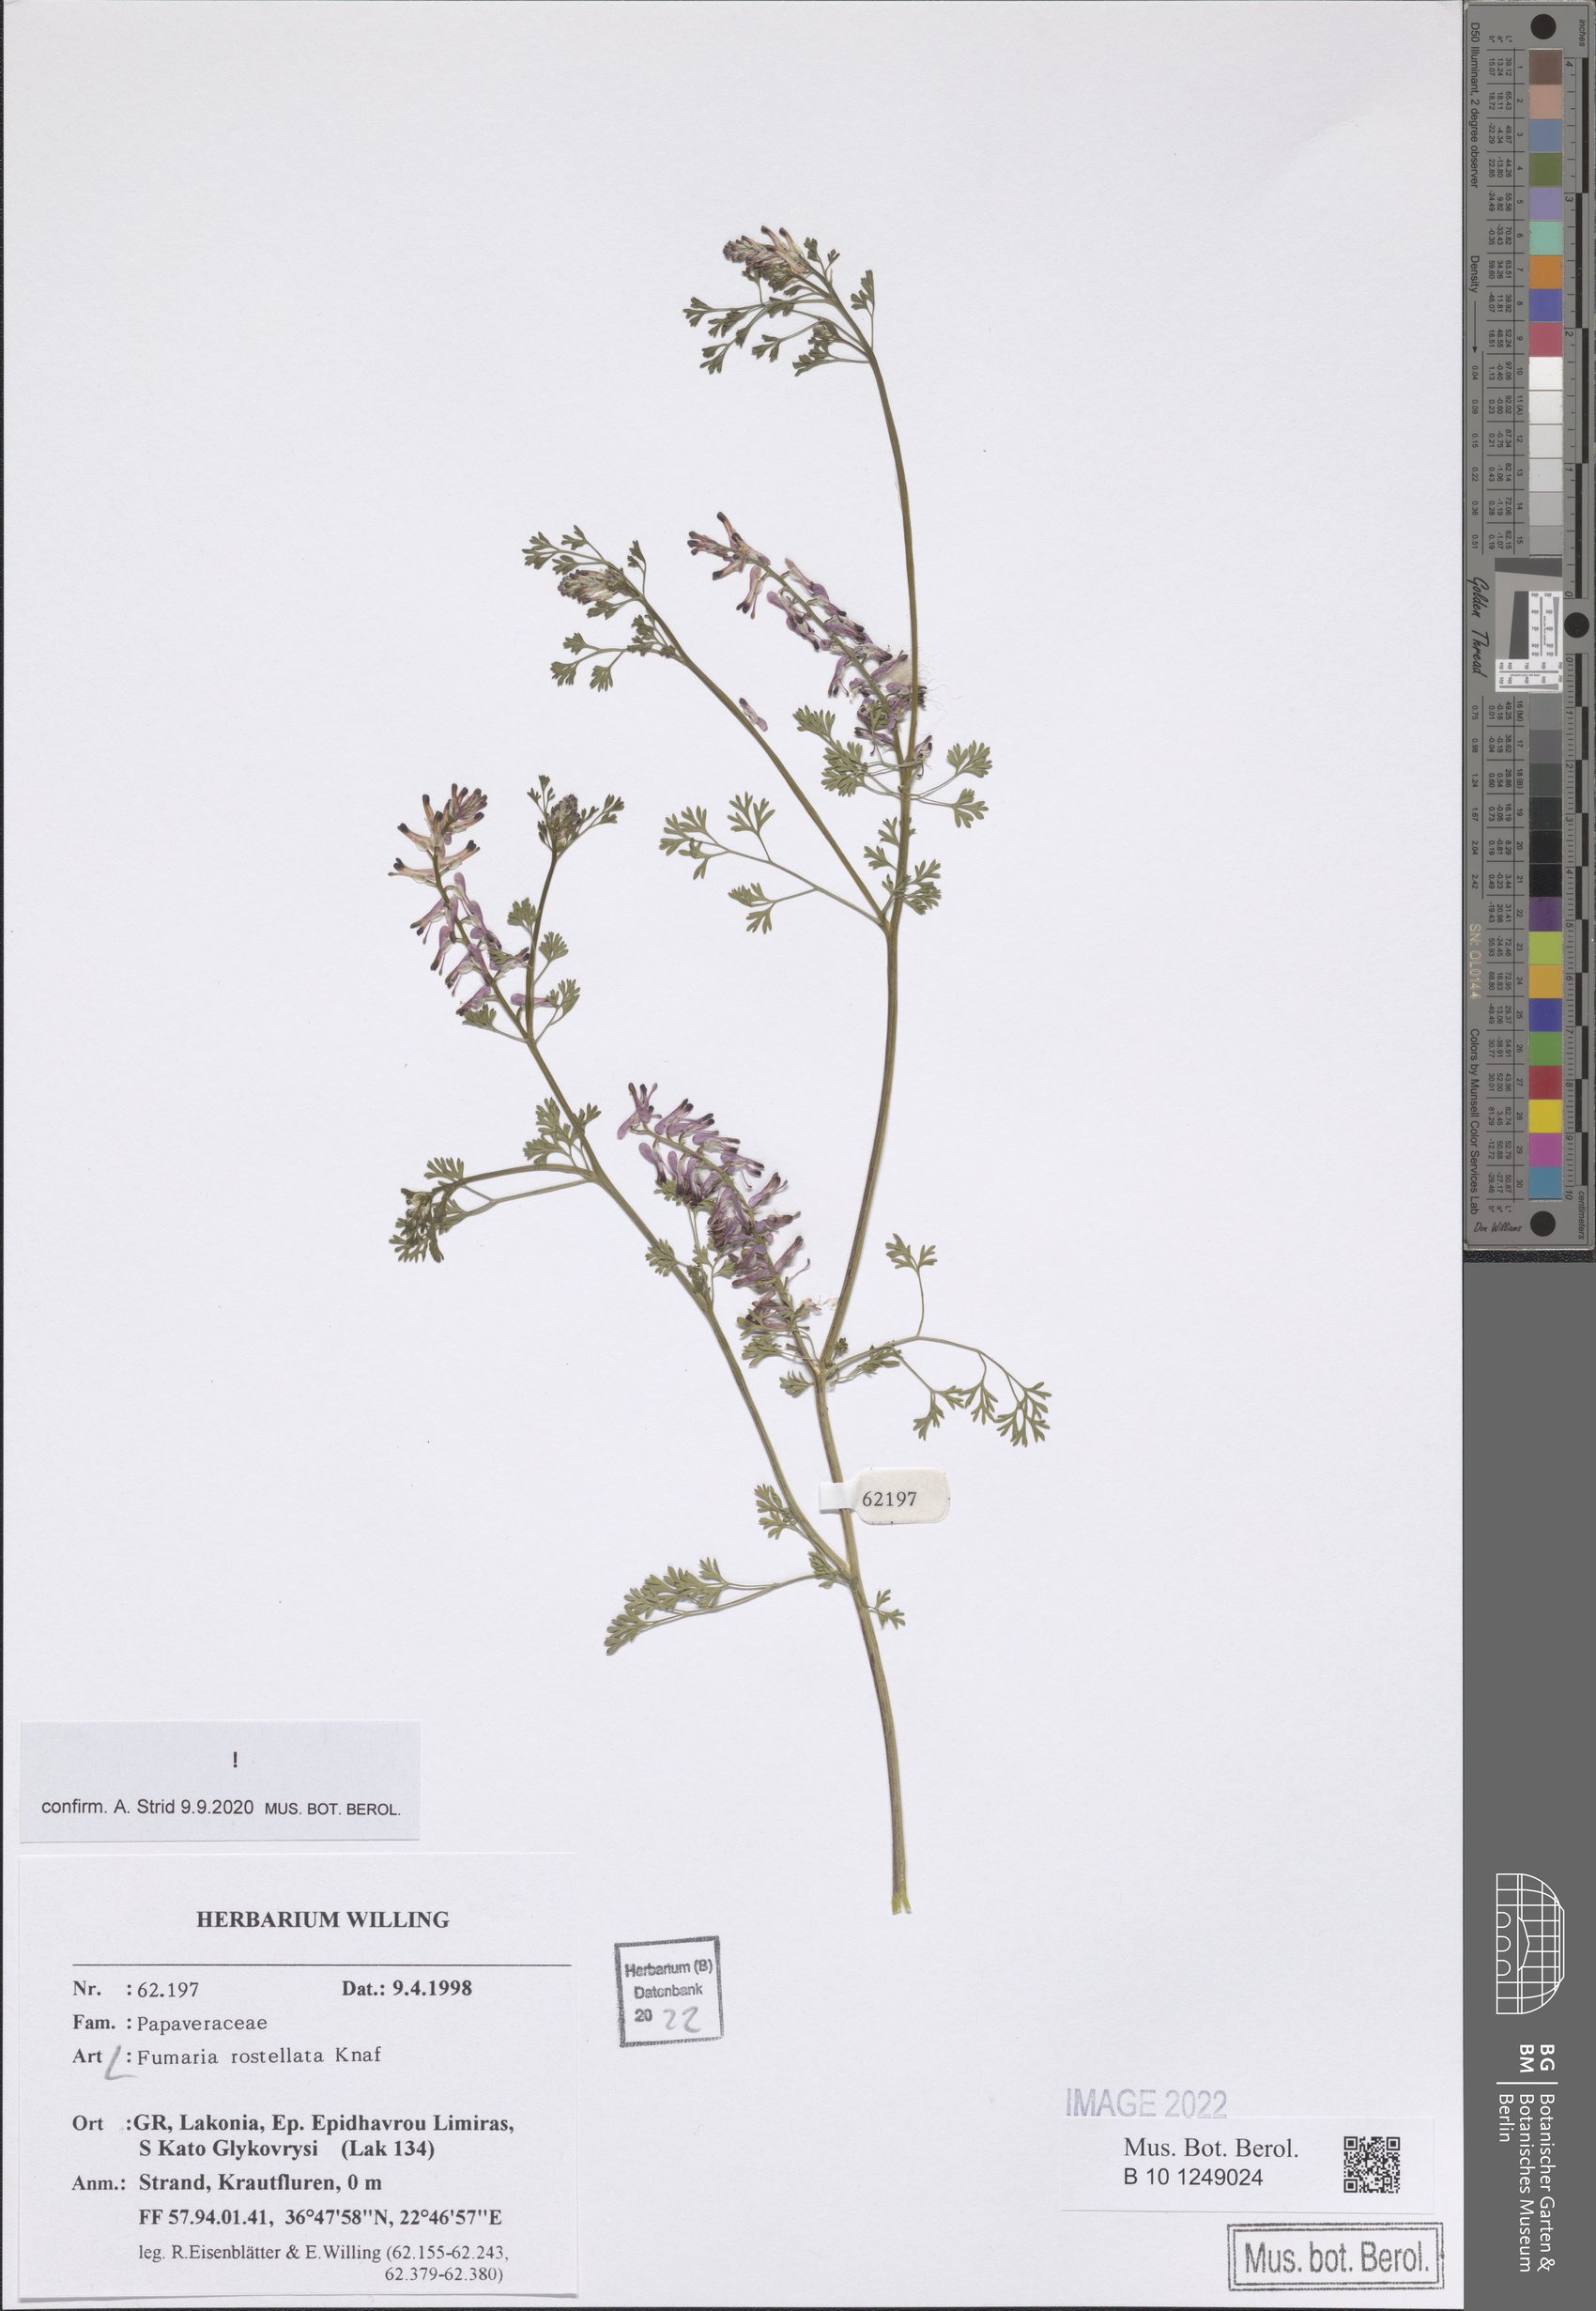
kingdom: Plantae
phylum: Tracheophyta
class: Magnoliopsida
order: Ranunculales
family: Papaveraceae
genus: Fumaria
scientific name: Fumaria rostellata
